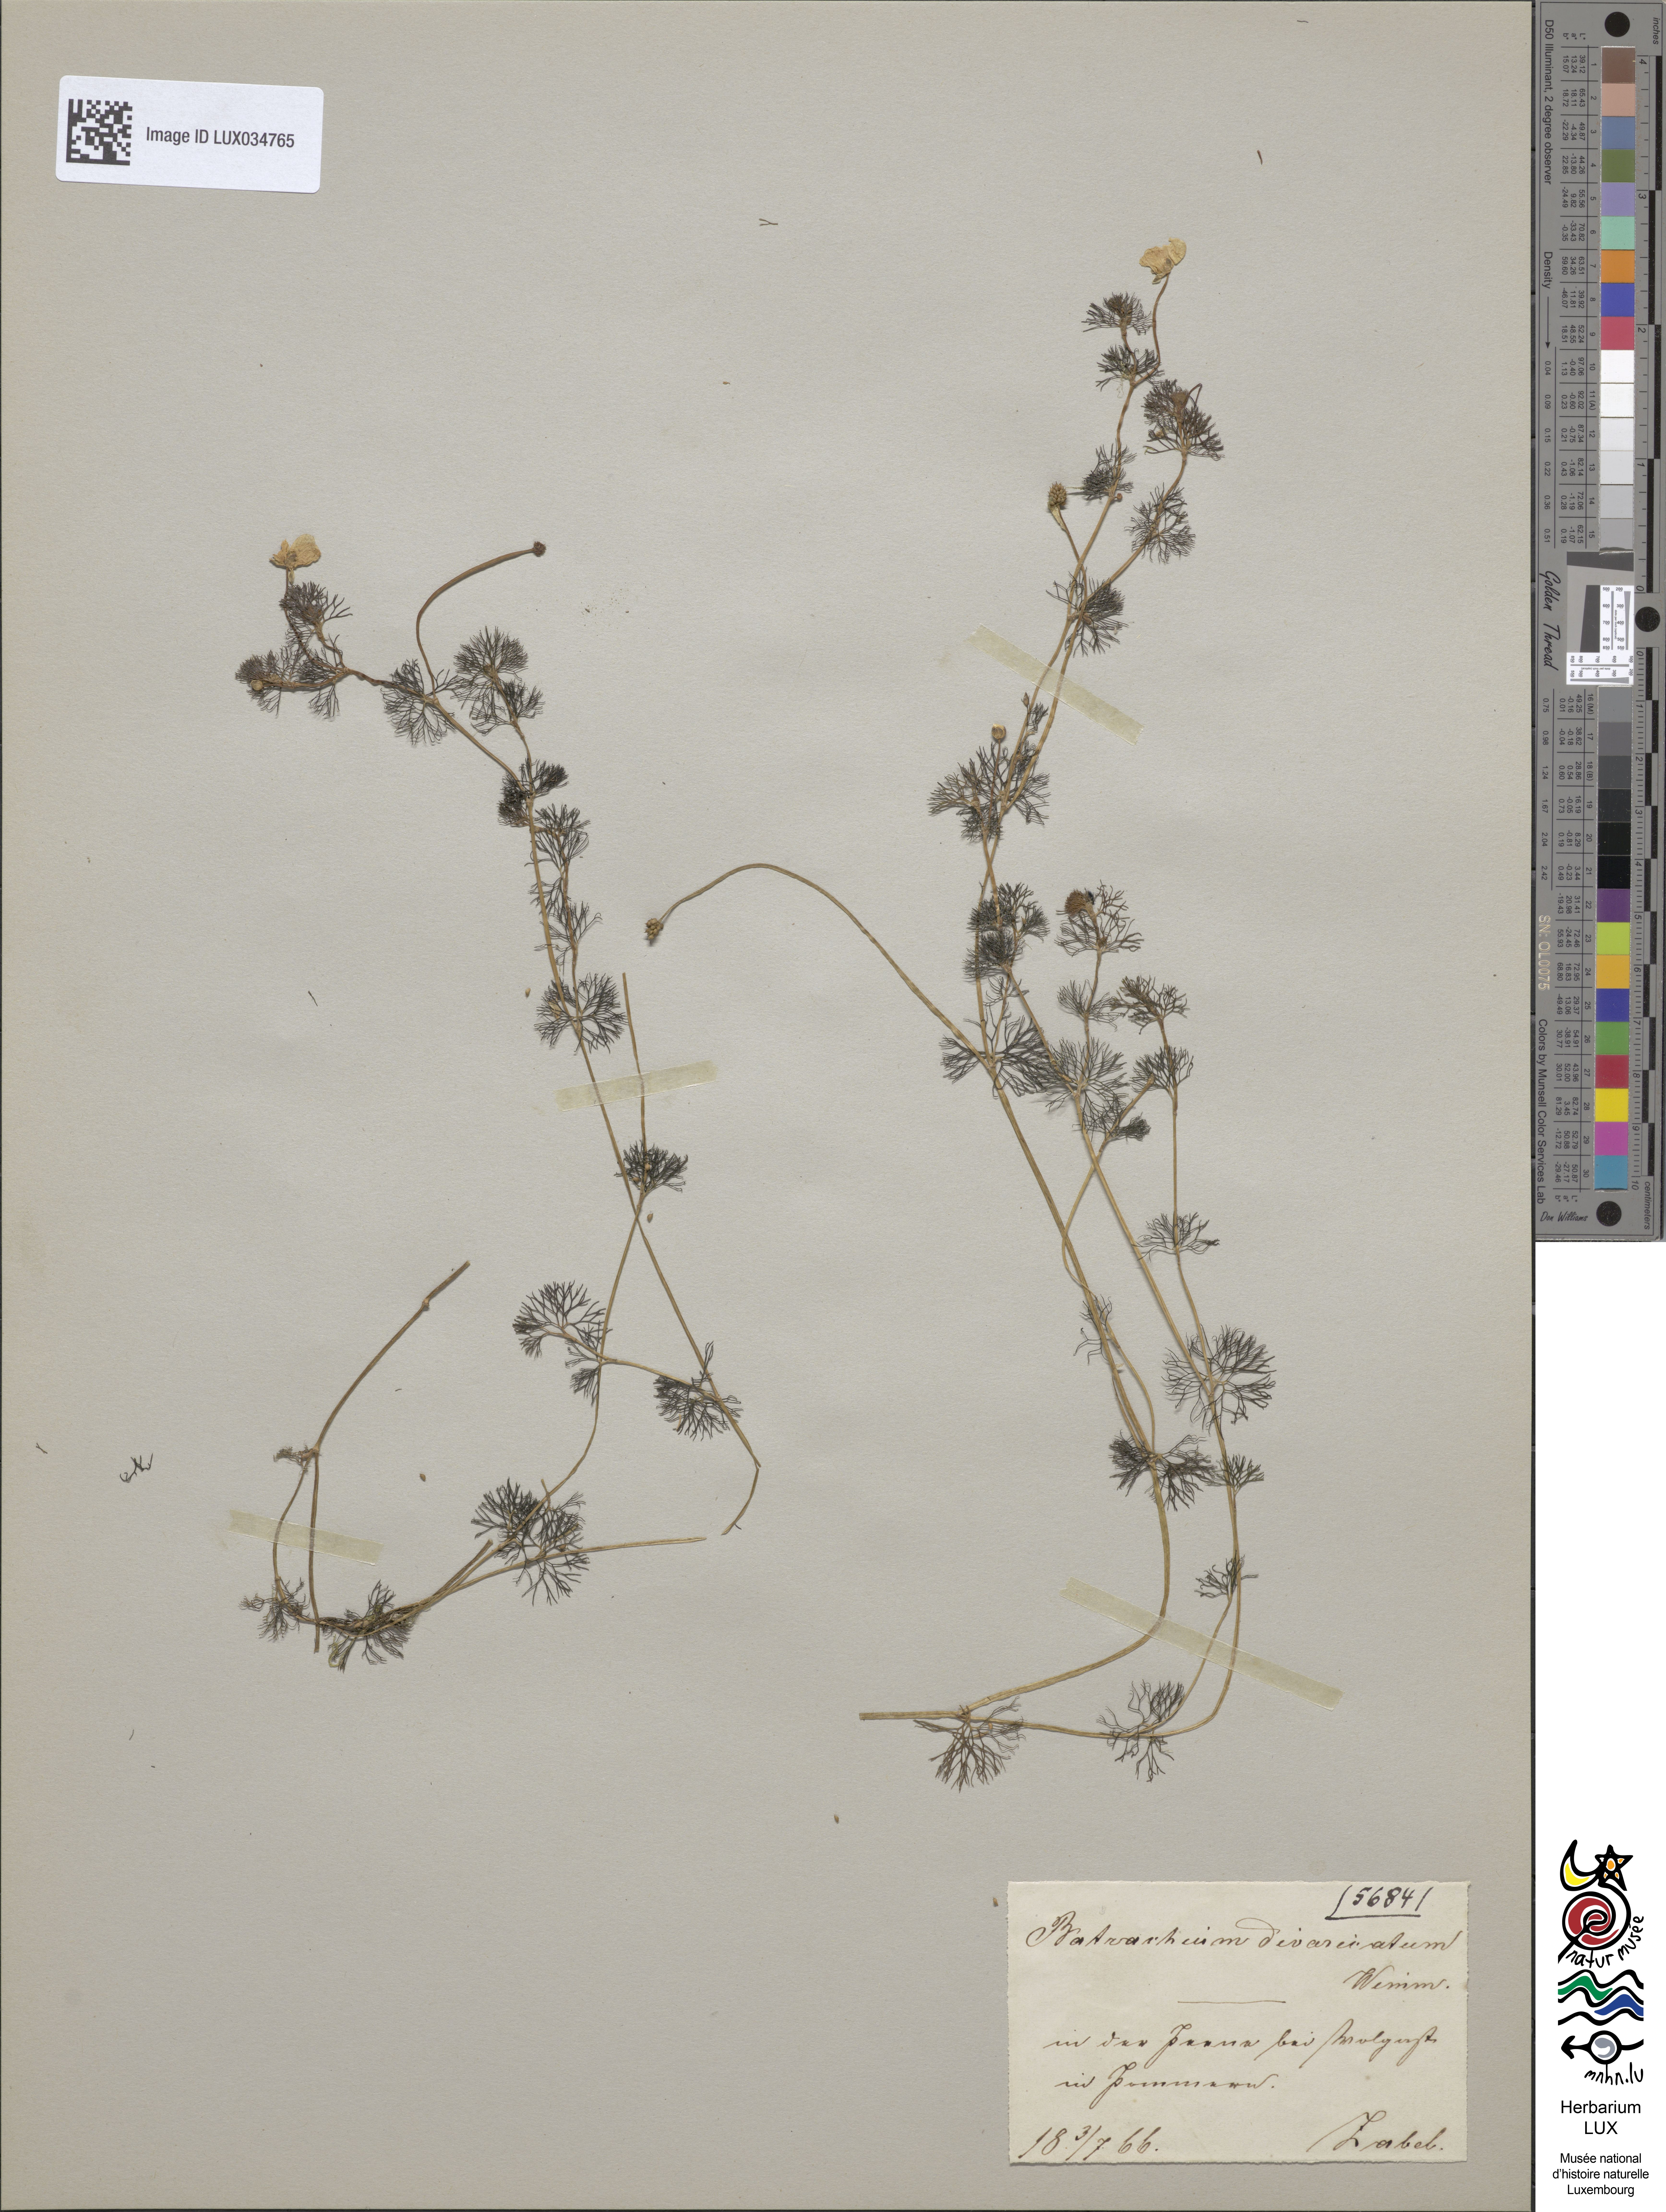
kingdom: Plantae
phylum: Tracheophyta
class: Magnoliopsida
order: Ranunculales
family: Ranunculaceae
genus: Ranunculus
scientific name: Ranunculus circinatus
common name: Fan-leaved water-crowfoot
